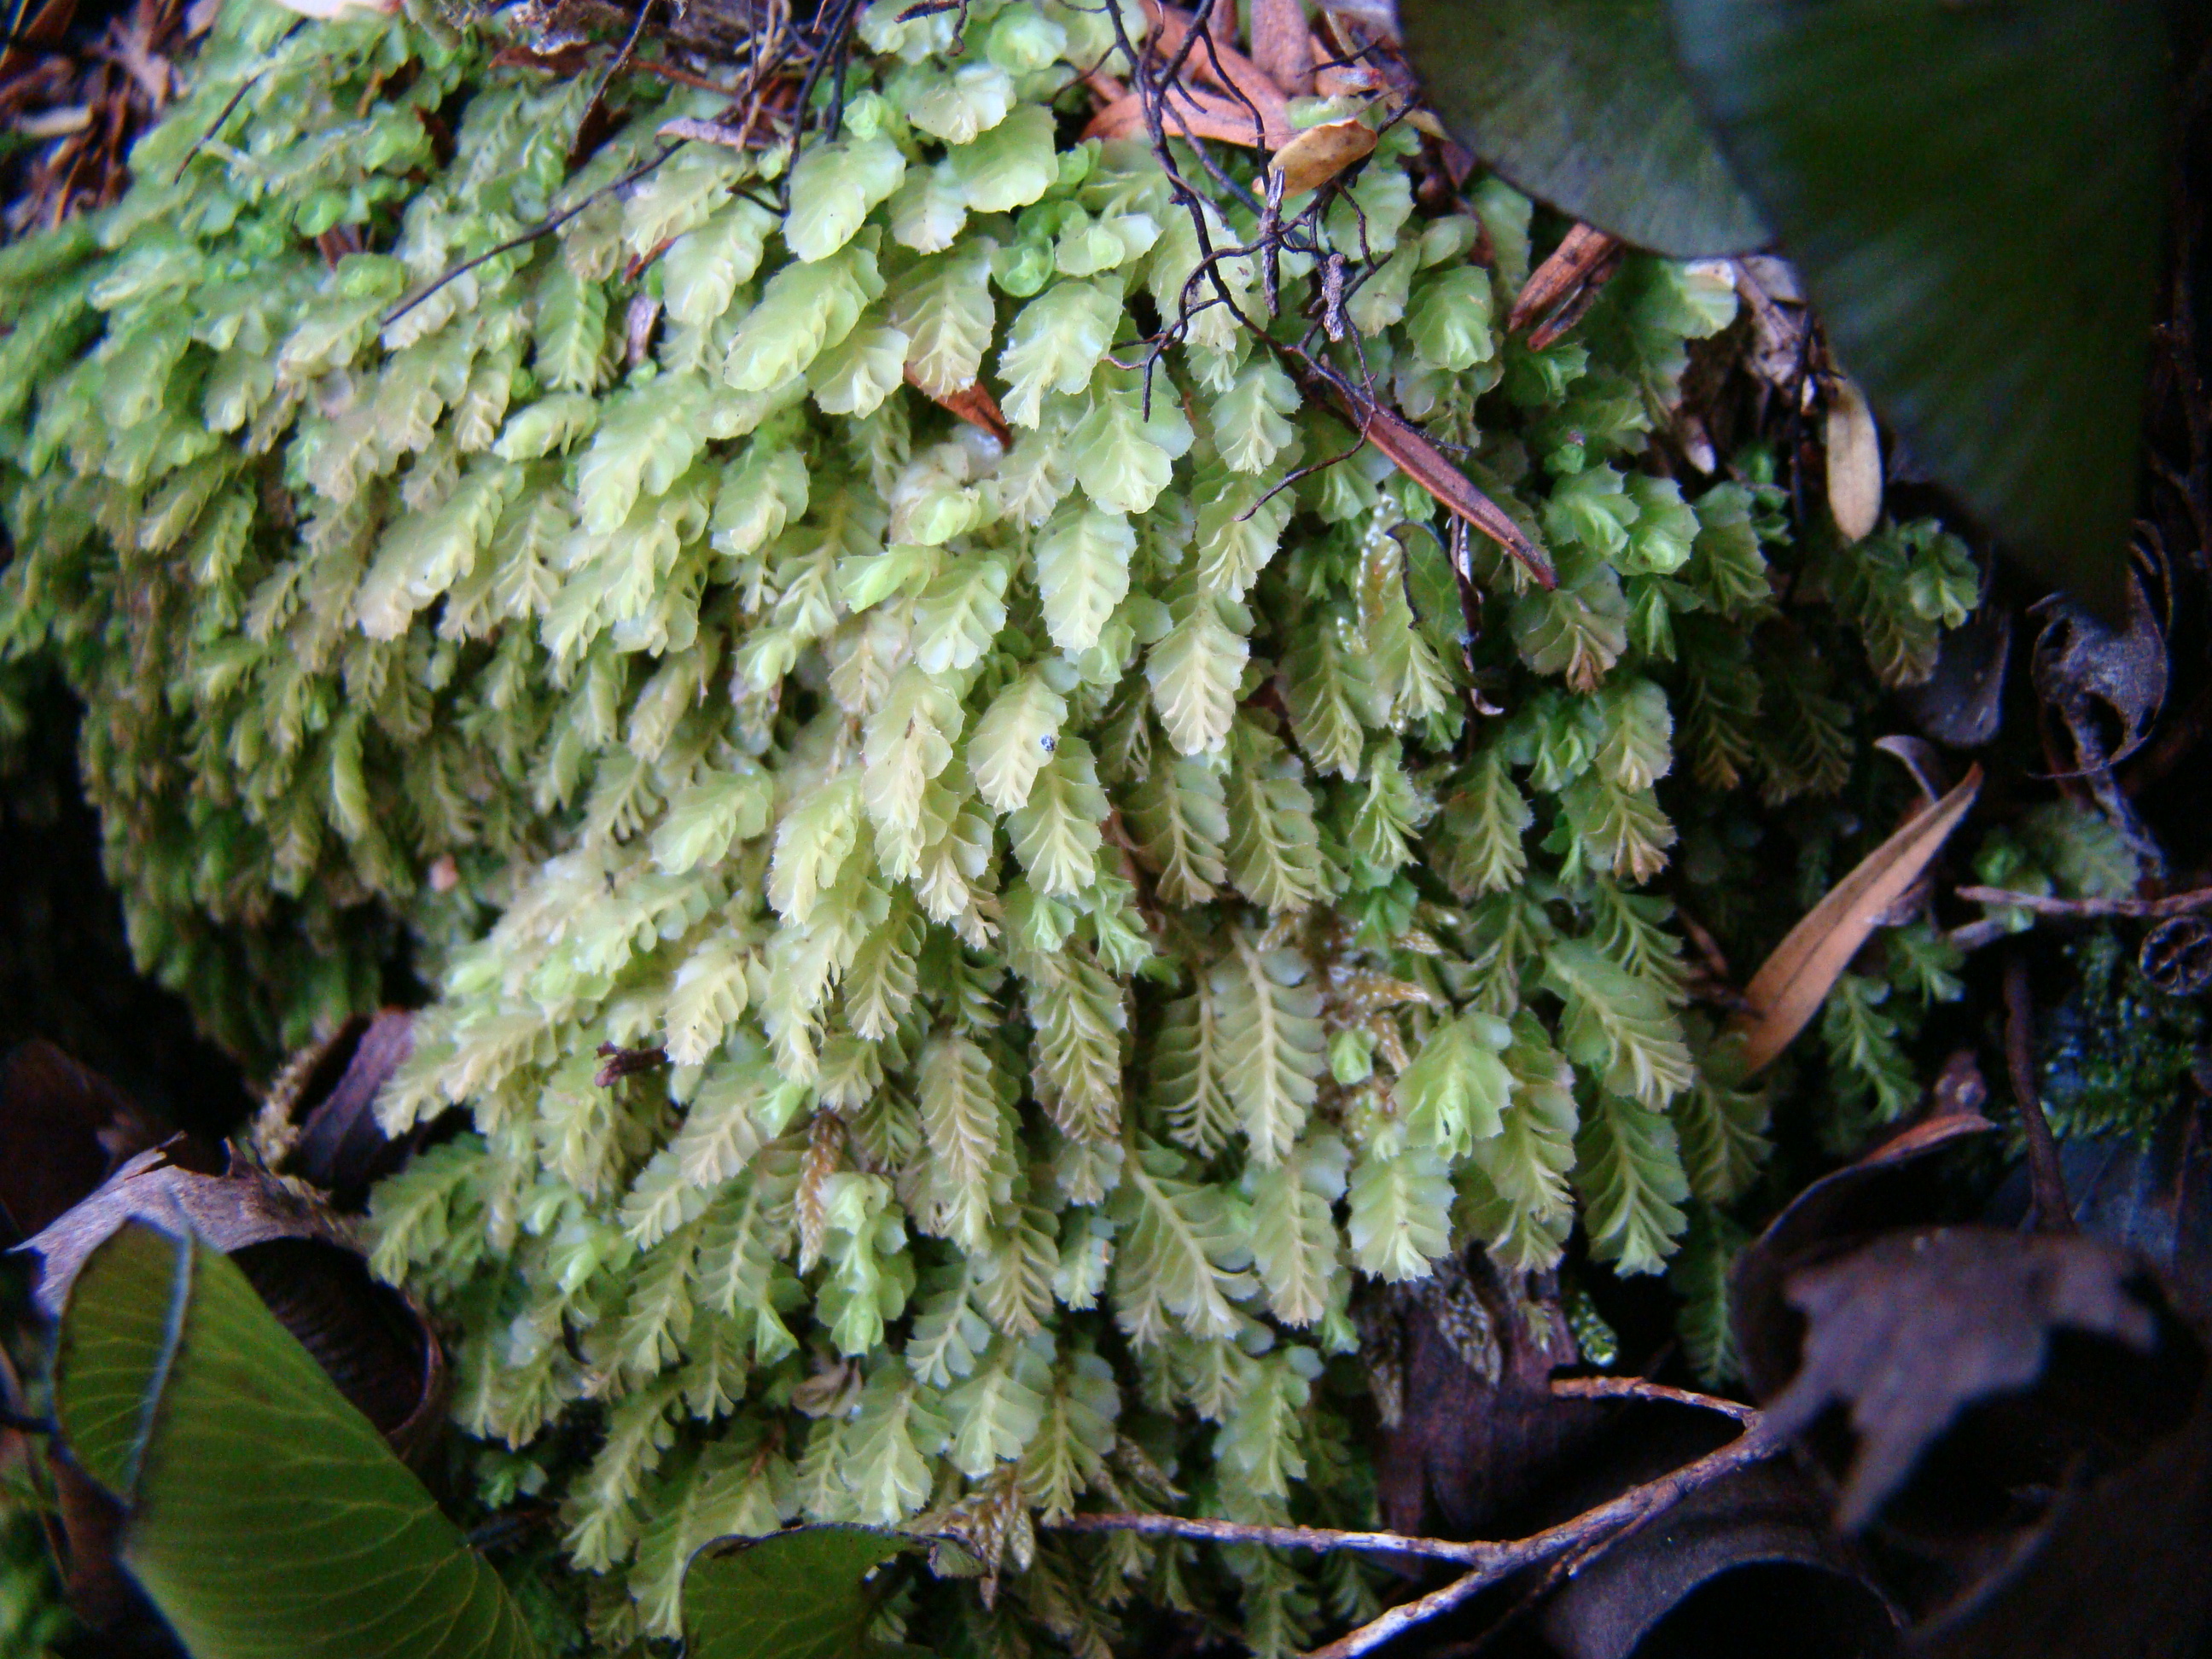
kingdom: Plantae
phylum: Marchantiophyta
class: Jungermanniopsida
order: Jungermanniales
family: Acrobolbaceae
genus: Acrobolbus
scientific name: Acrobolbus knightii
